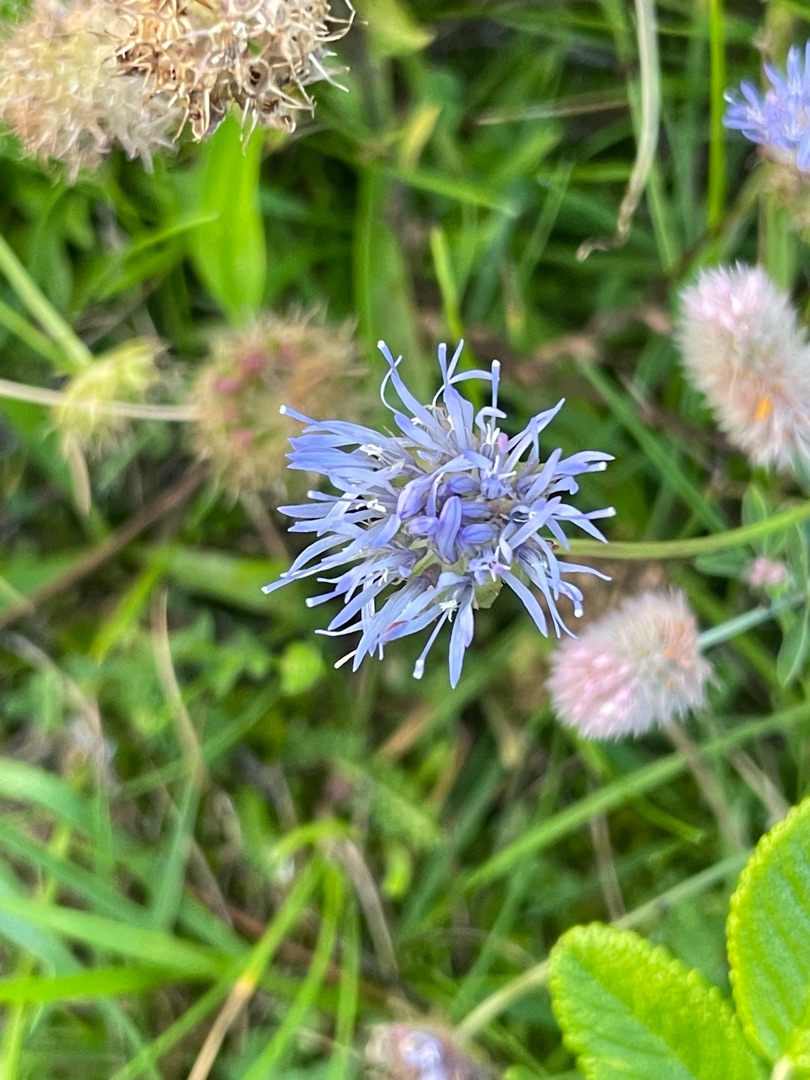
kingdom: Plantae
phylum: Tracheophyta
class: Magnoliopsida
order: Asterales
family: Campanulaceae
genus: Jasione
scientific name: Jasione montana
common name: Blåmunke
